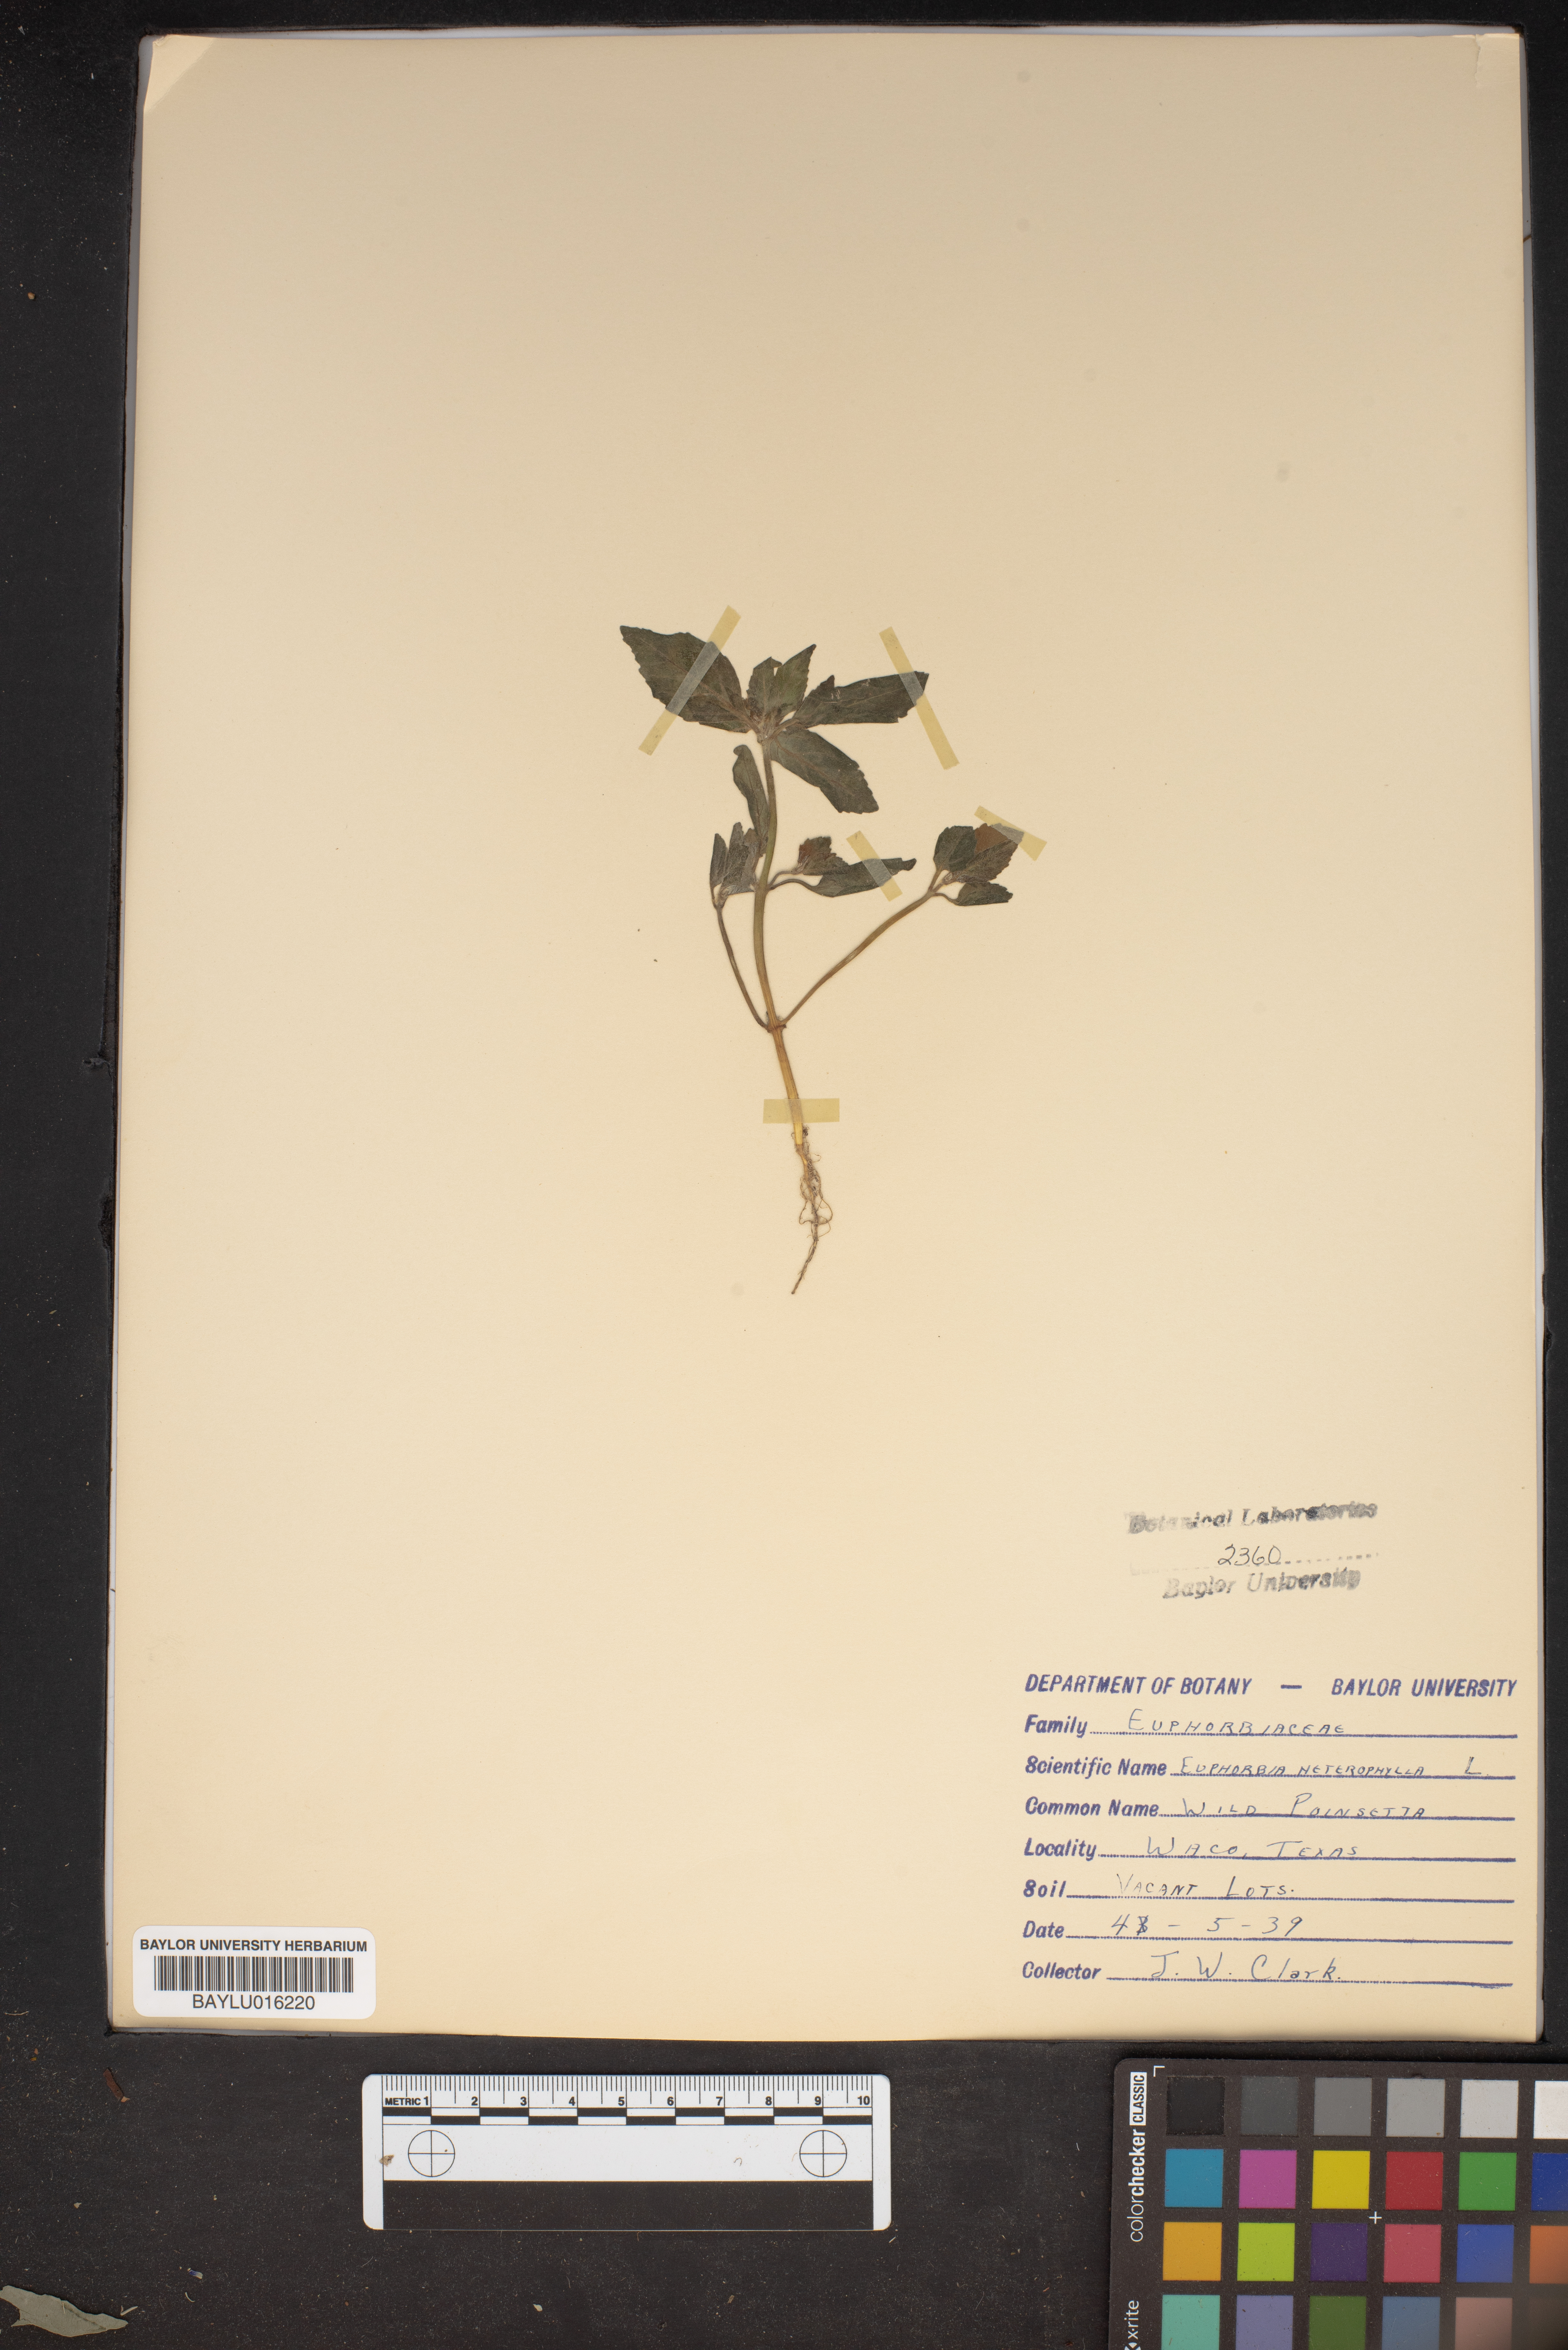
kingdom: Plantae
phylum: Tracheophyta
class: Magnoliopsida
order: Malpighiales
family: Euphorbiaceae
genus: Euphorbia
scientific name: Euphorbia heterophylla
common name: Mexican fireplant
